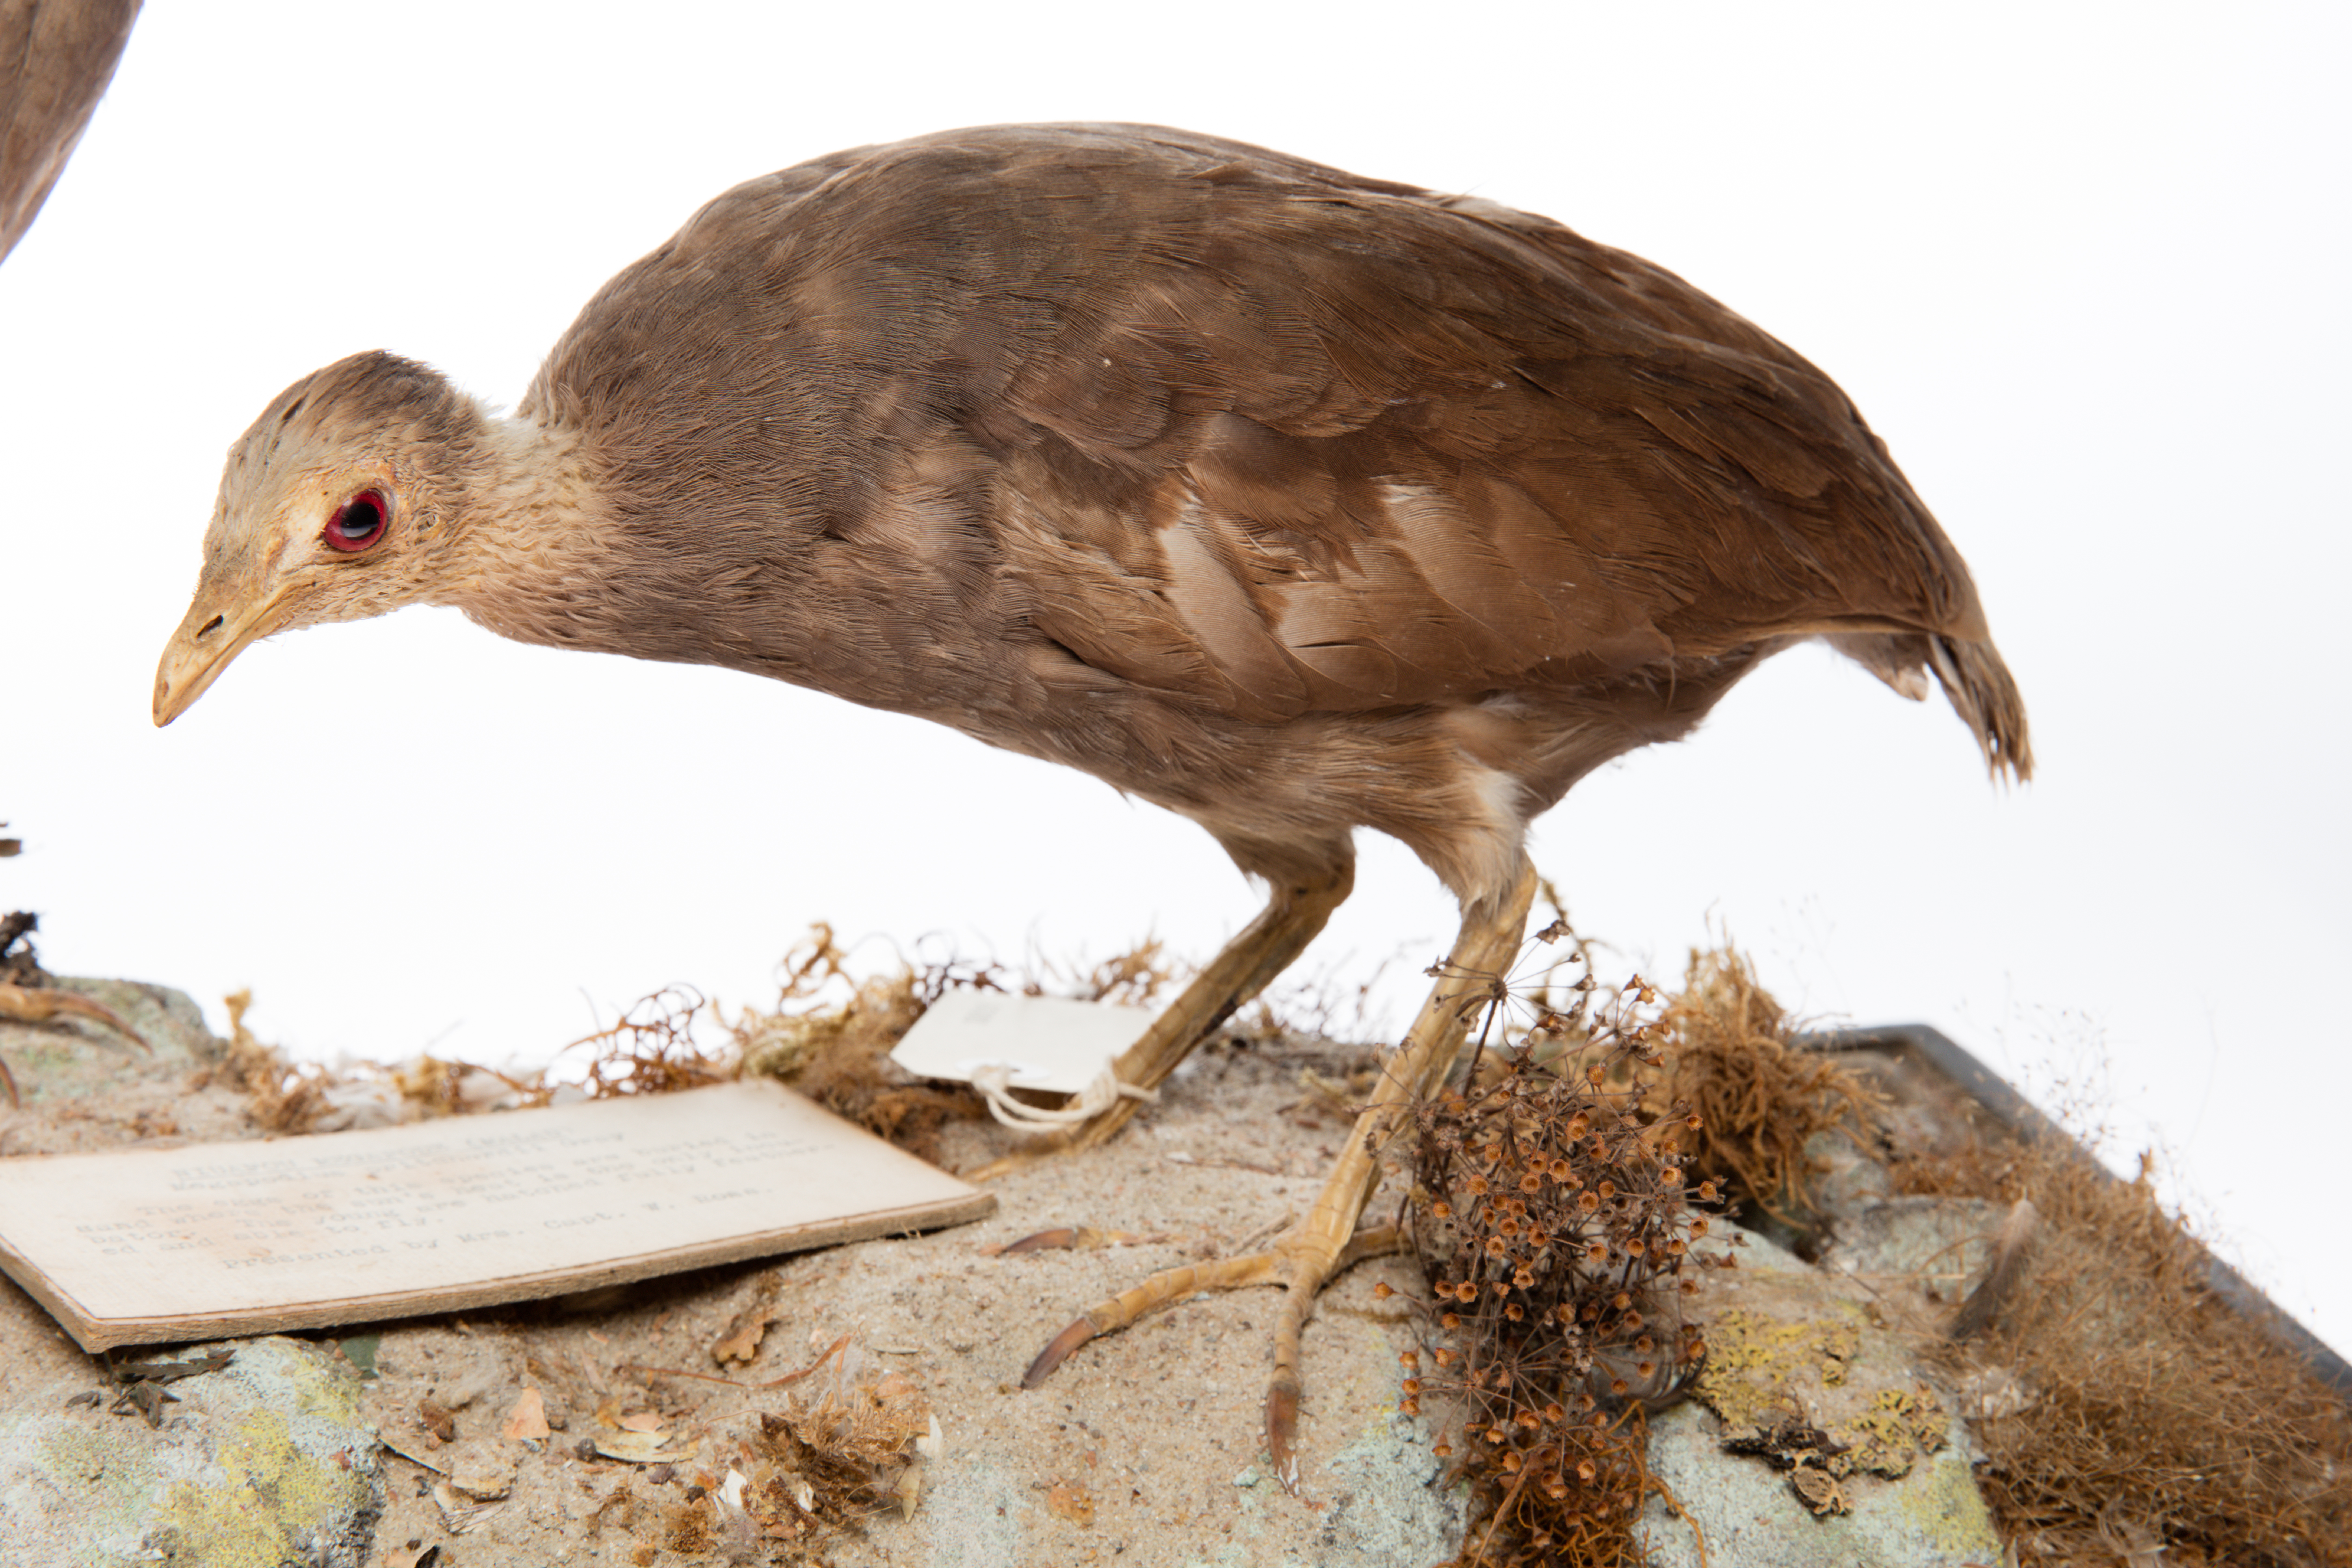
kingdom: Animalia
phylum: Chordata
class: Aves
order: Galliformes
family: Megapodiidae
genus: Megapodius
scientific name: Megapodius pritchardii
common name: Tongan megapode
